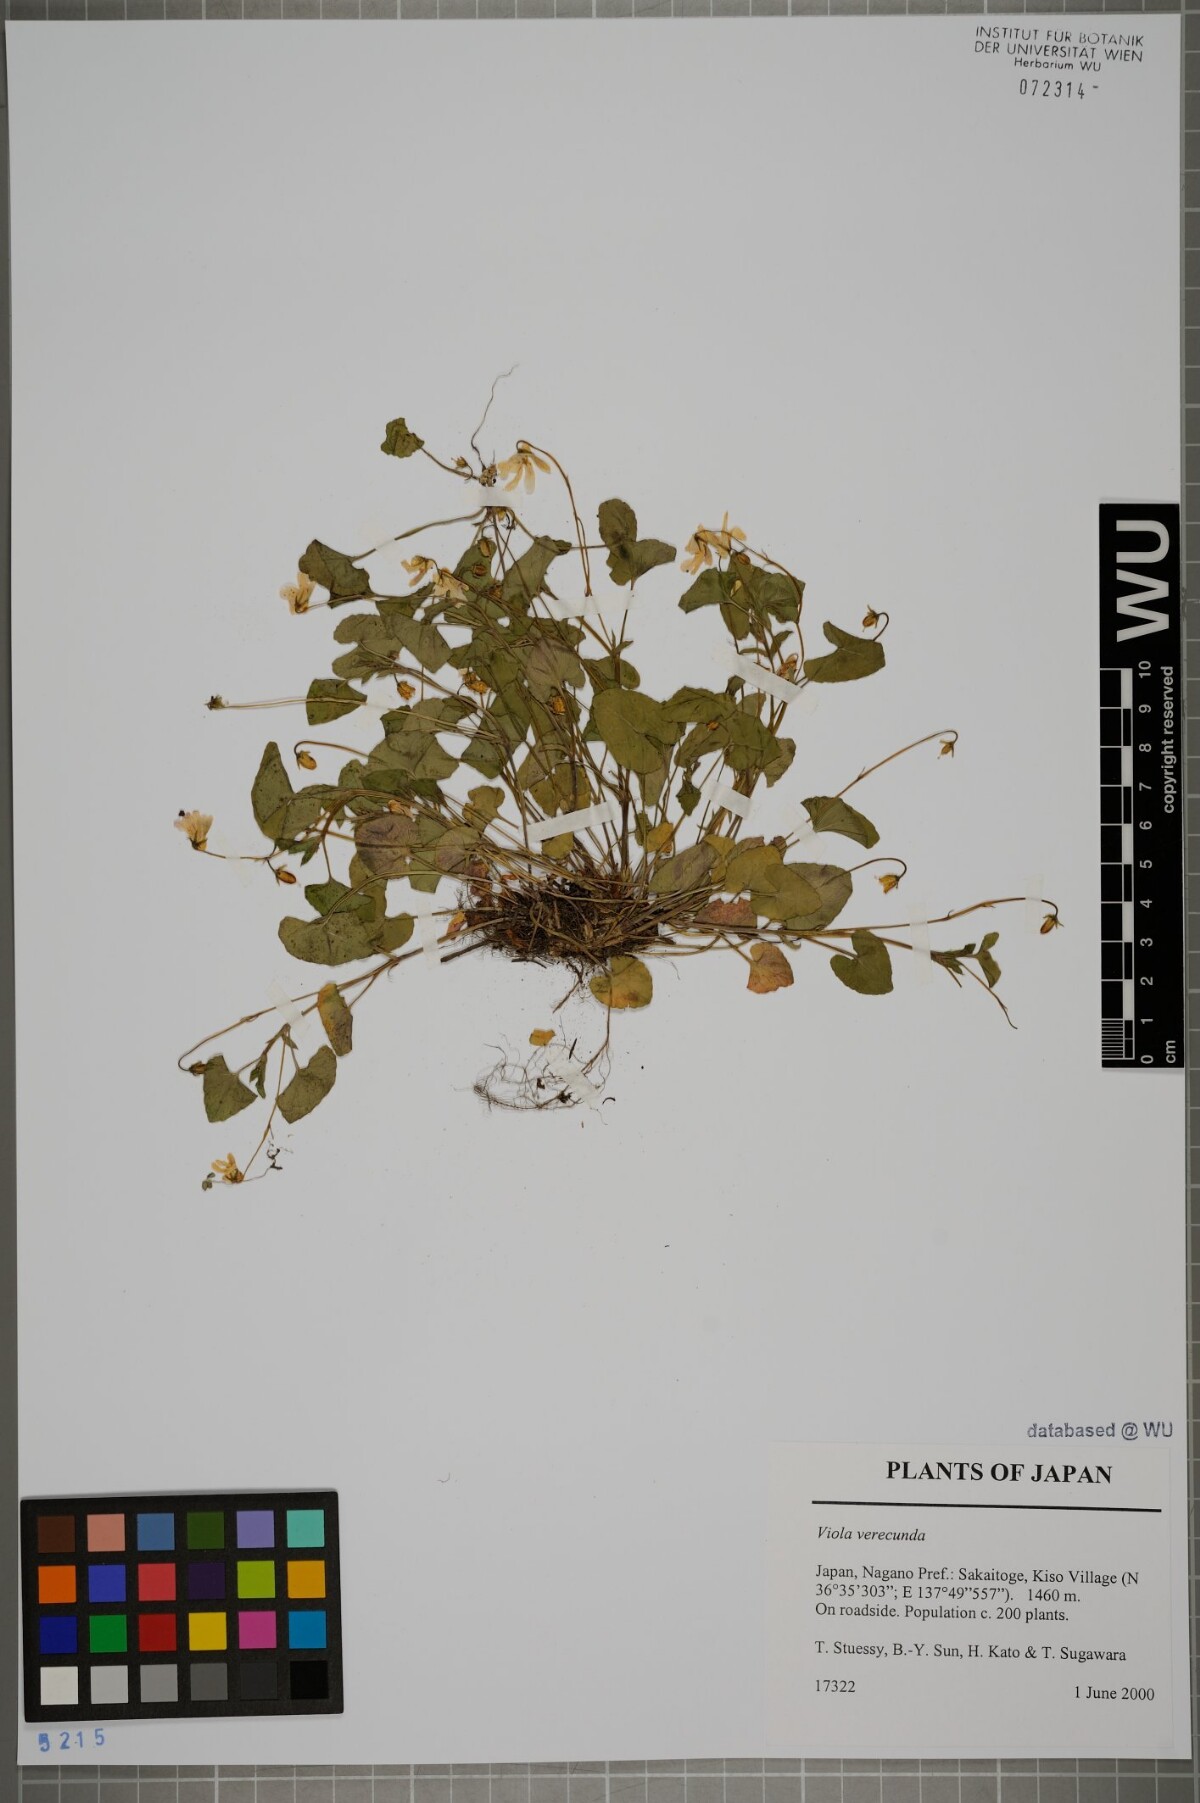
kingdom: Plantae
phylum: Tracheophyta
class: Magnoliopsida
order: Malpighiales
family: Violaceae
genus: Viola
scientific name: Viola hamiltoniana
